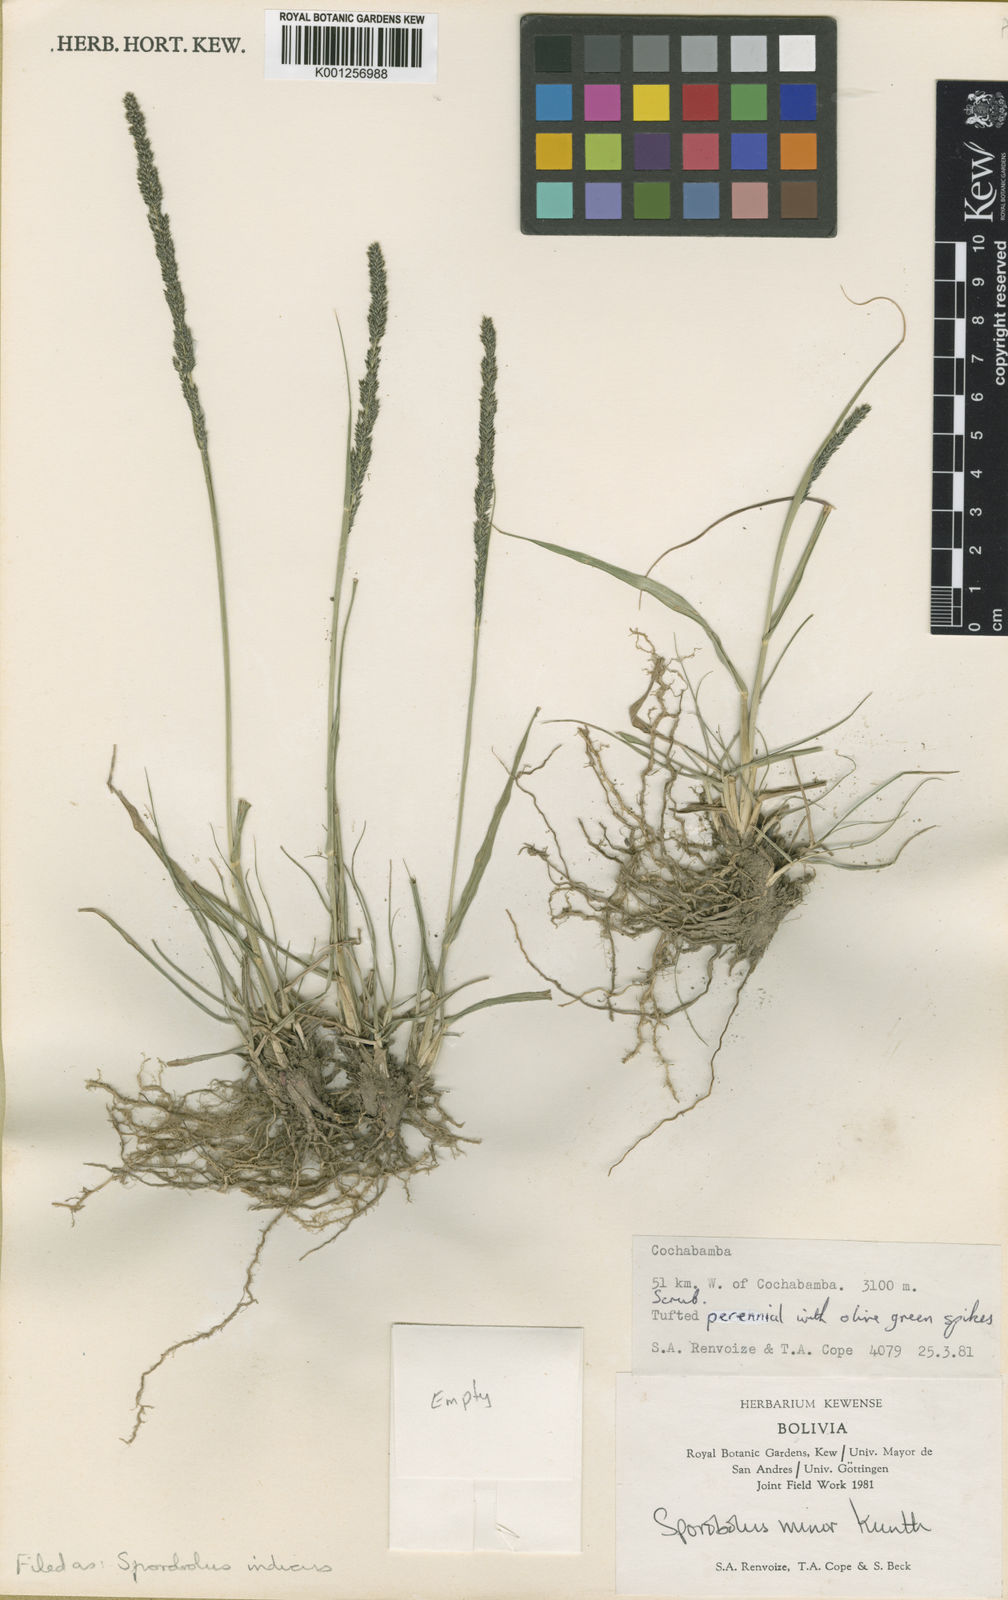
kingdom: Plantae
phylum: Tracheophyta
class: Liliopsida
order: Poales
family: Poaceae
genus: Sporobolus
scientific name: Sporobolus indicus
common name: Smut grass
